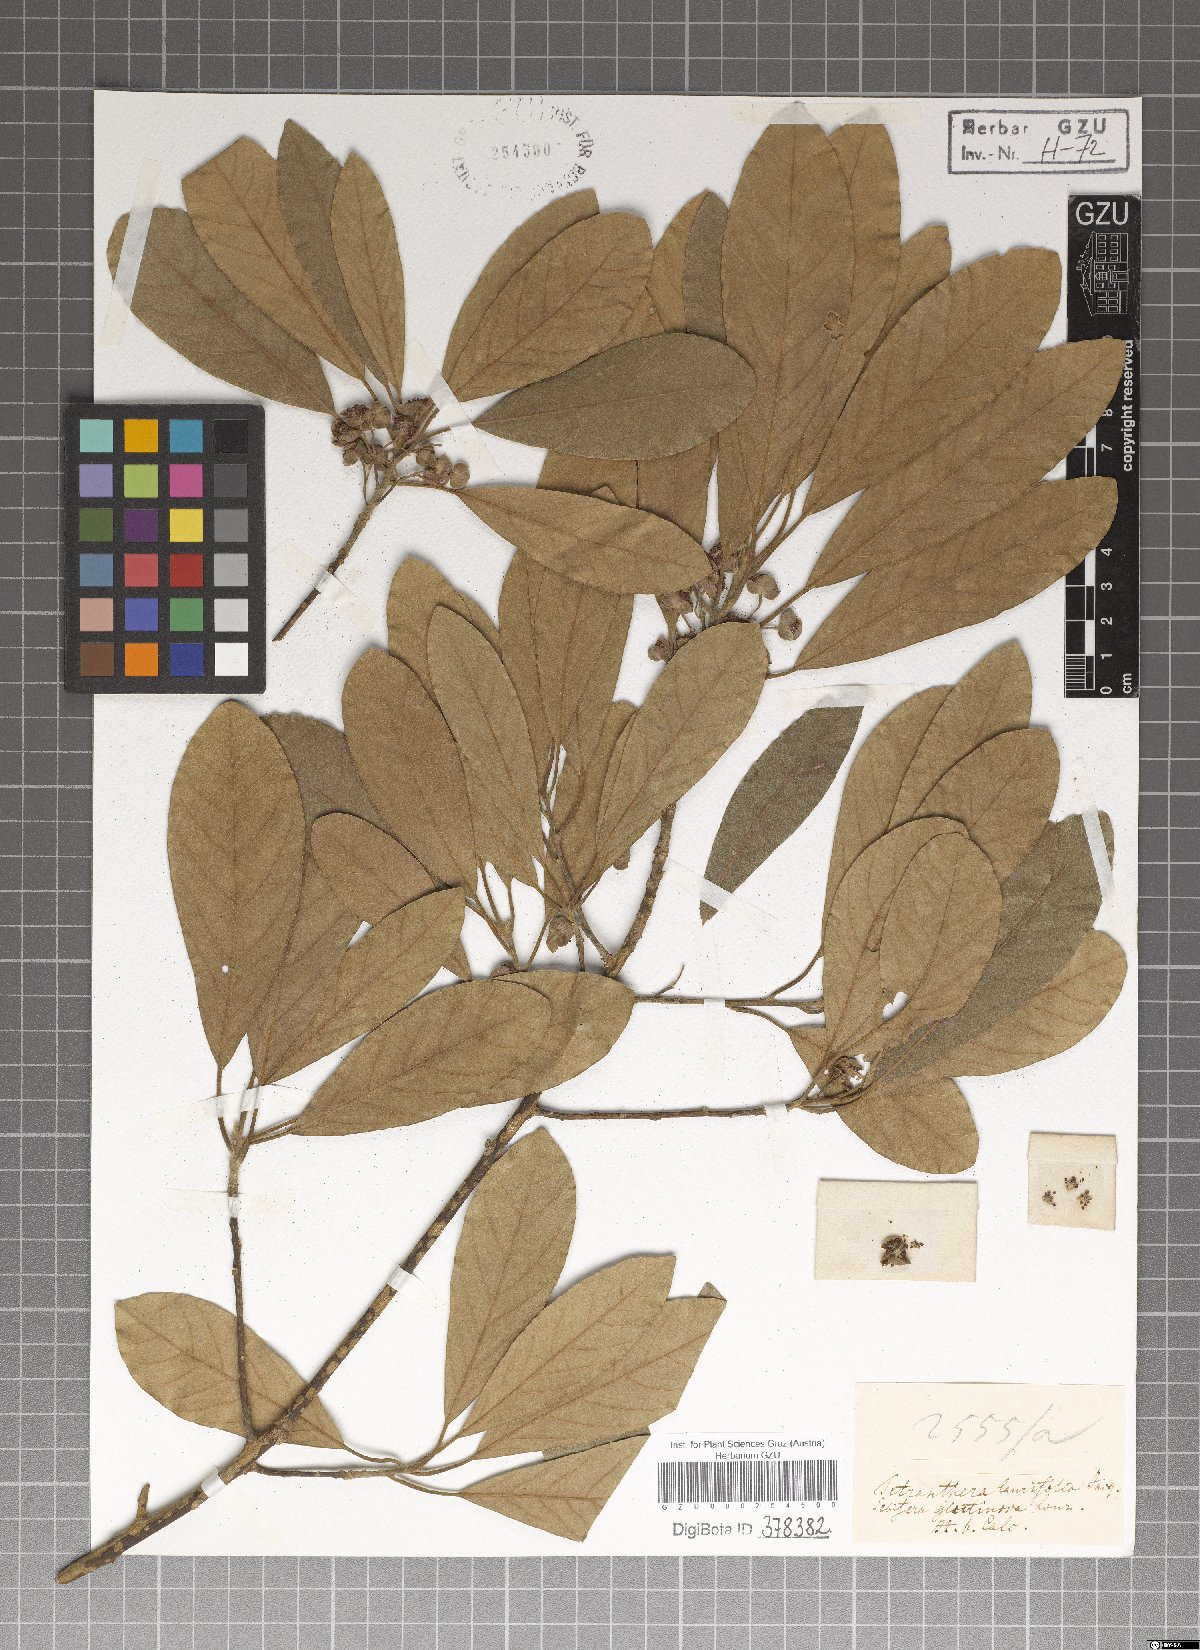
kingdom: Plantae
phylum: Tracheophyta
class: Magnoliopsida
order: Laurales
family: Lauraceae
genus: Litsea
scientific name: Litsea glutinosa
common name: Indian-laurel
